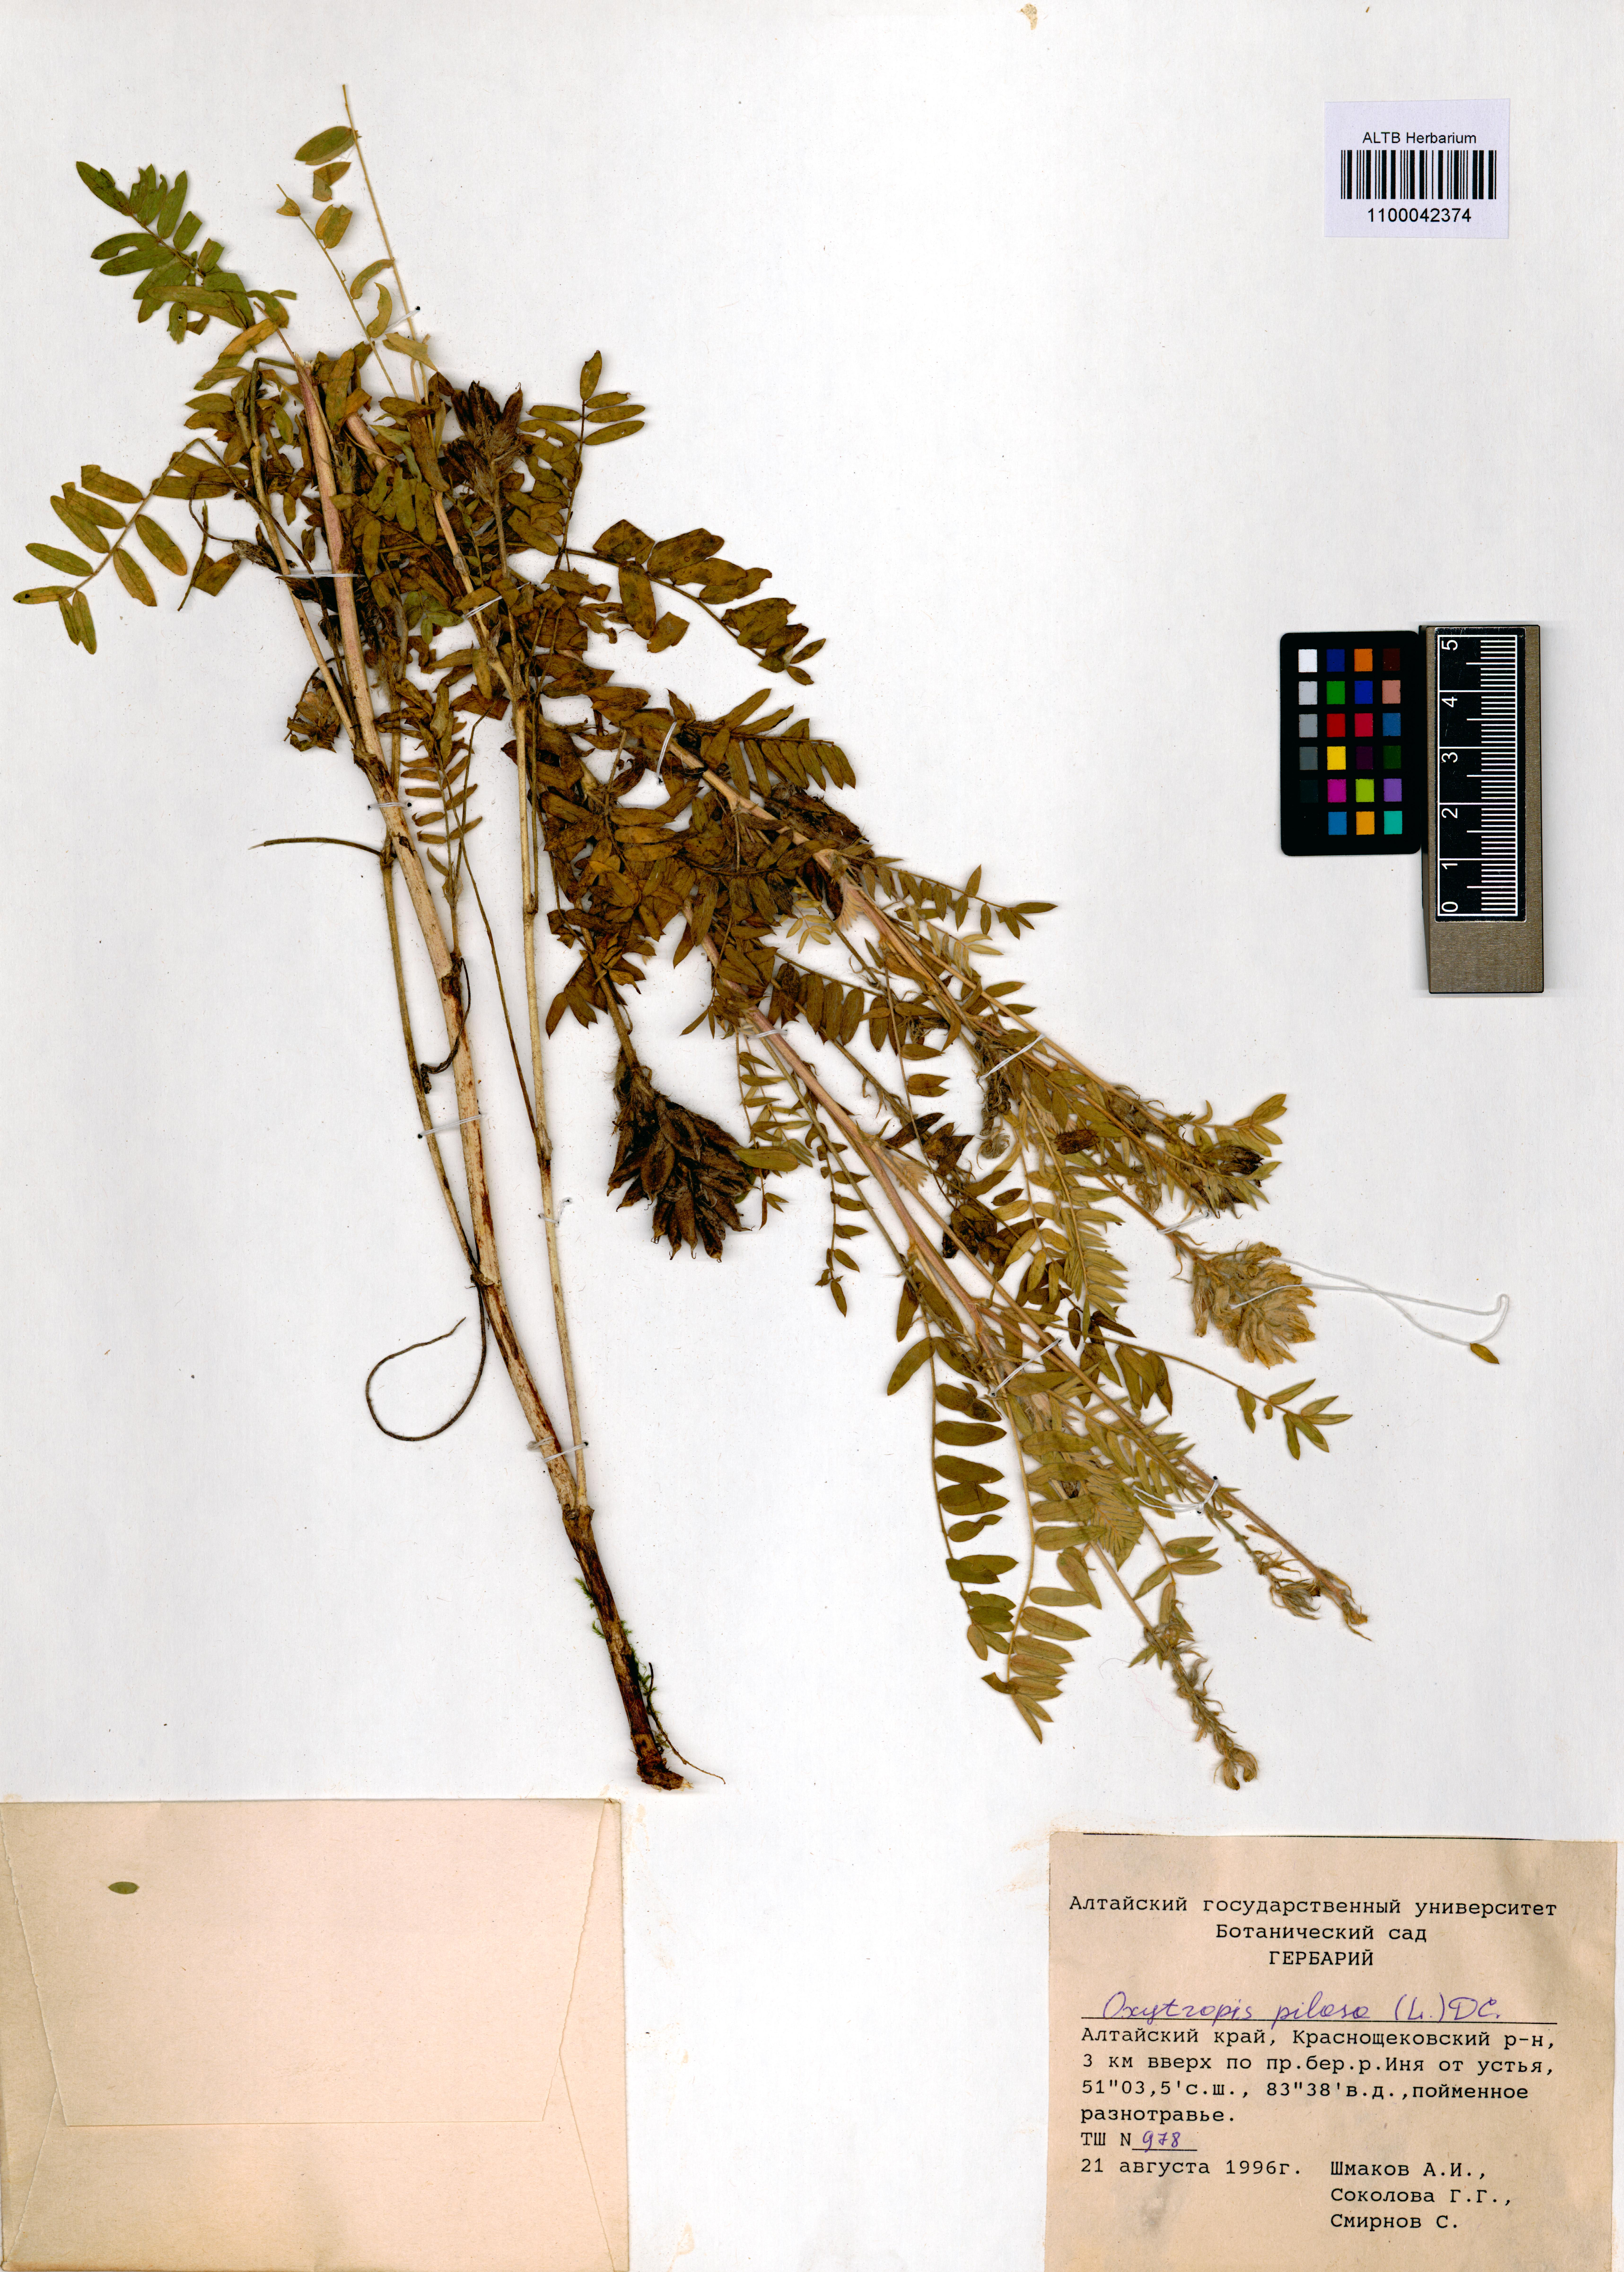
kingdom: Plantae
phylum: Tracheophyta
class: Magnoliopsida
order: Fabales
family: Fabaceae
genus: Oxytropis
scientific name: Oxytropis pilosa
